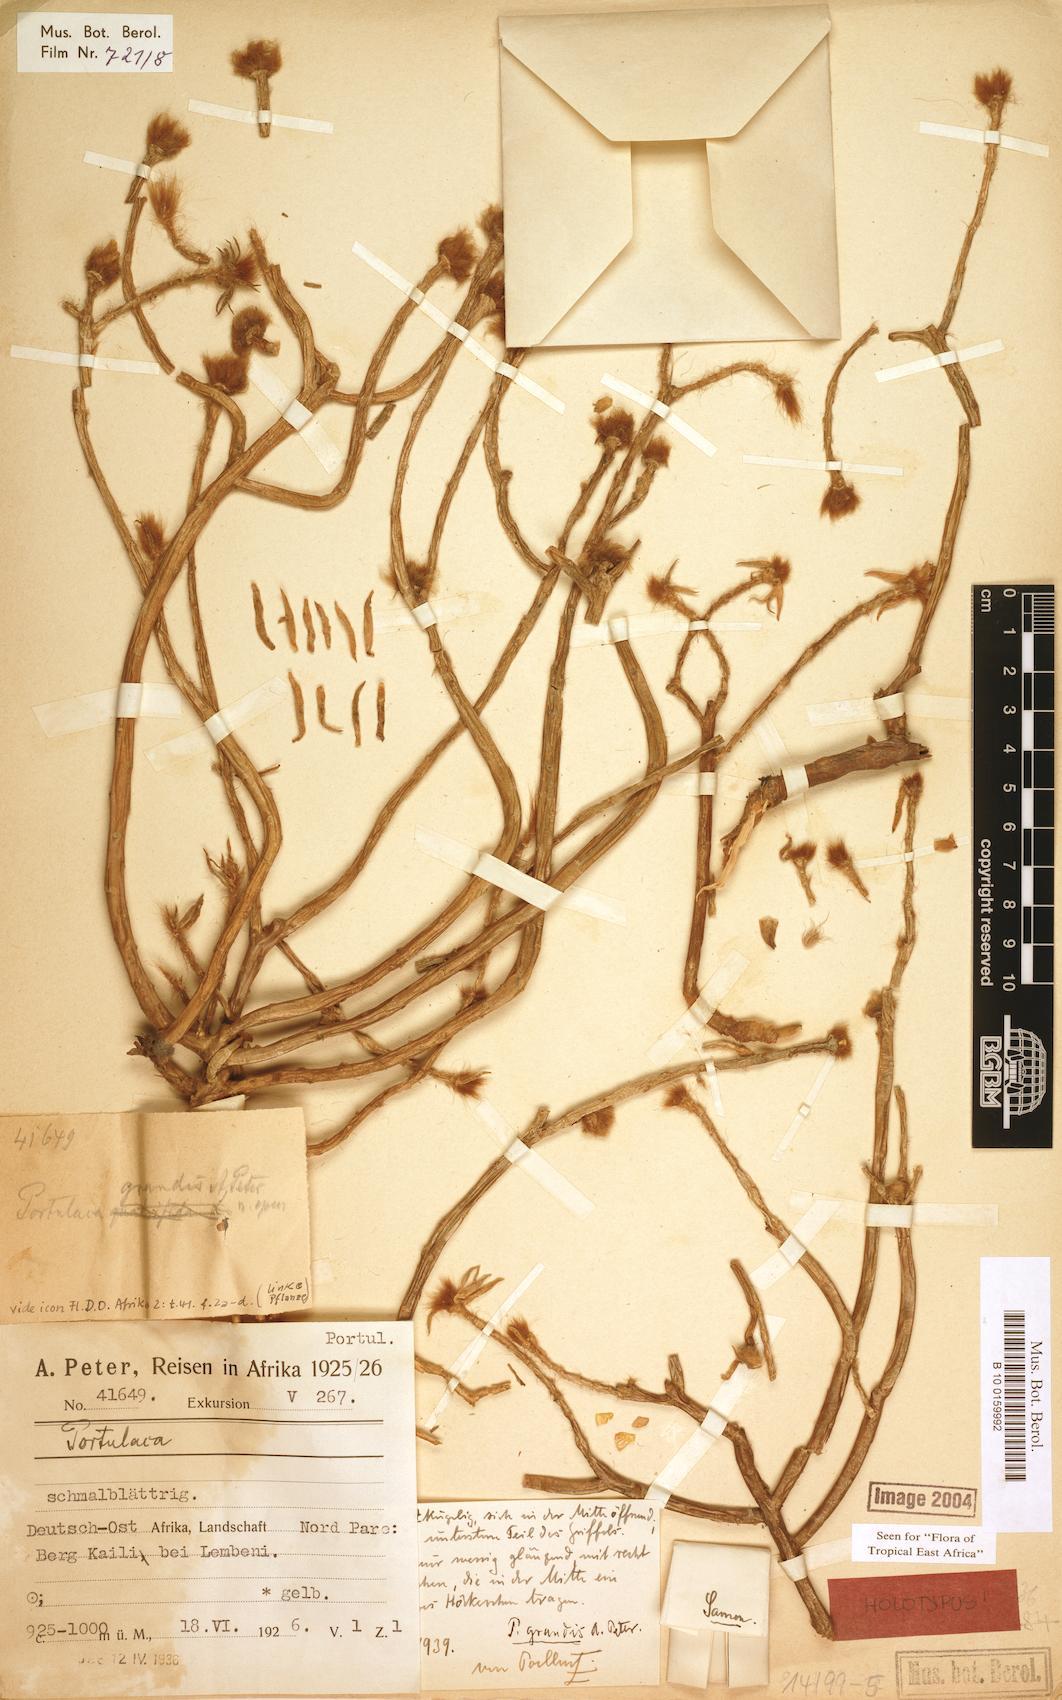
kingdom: Plantae
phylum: Tracheophyta
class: Magnoliopsida
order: Caryophyllales
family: Portulacaceae
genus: Portulaca
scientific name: Portulaca grandis
